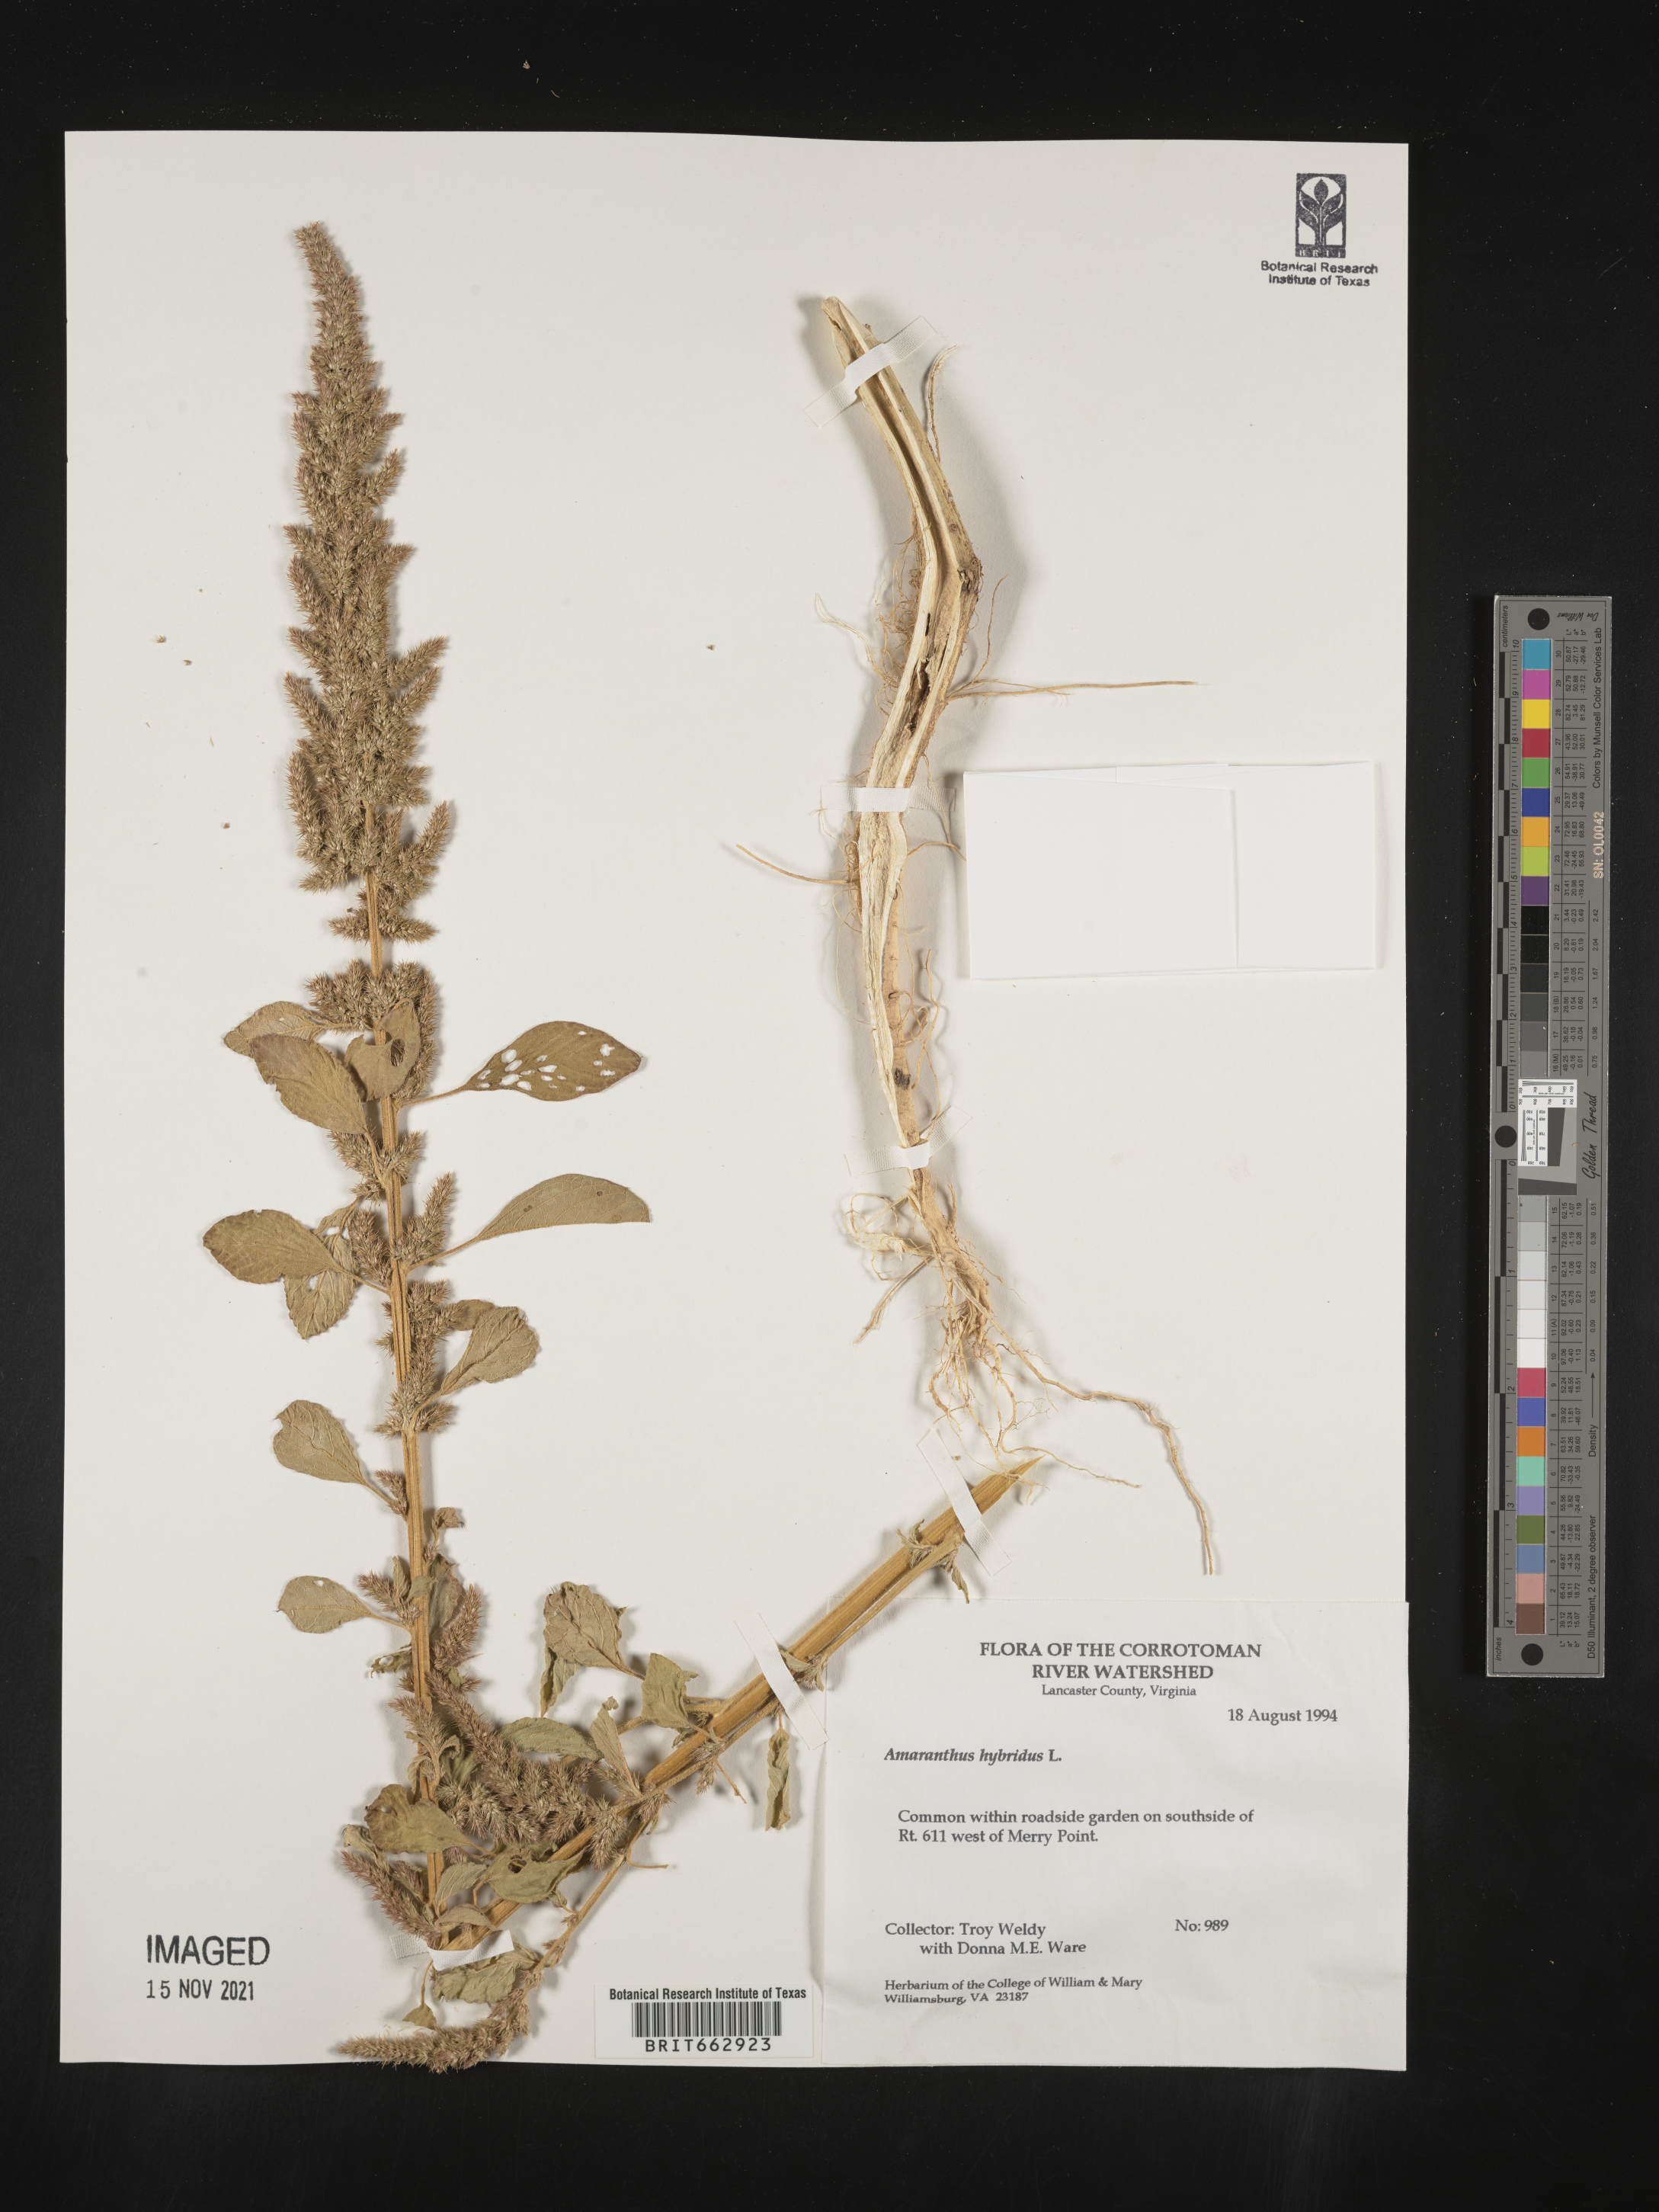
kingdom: Plantae
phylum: Tracheophyta
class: Magnoliopsida
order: Caryophyllales
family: Amaranthaceae
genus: Amaranthus
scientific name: Amaranthus hybridus
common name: Green amaranth
